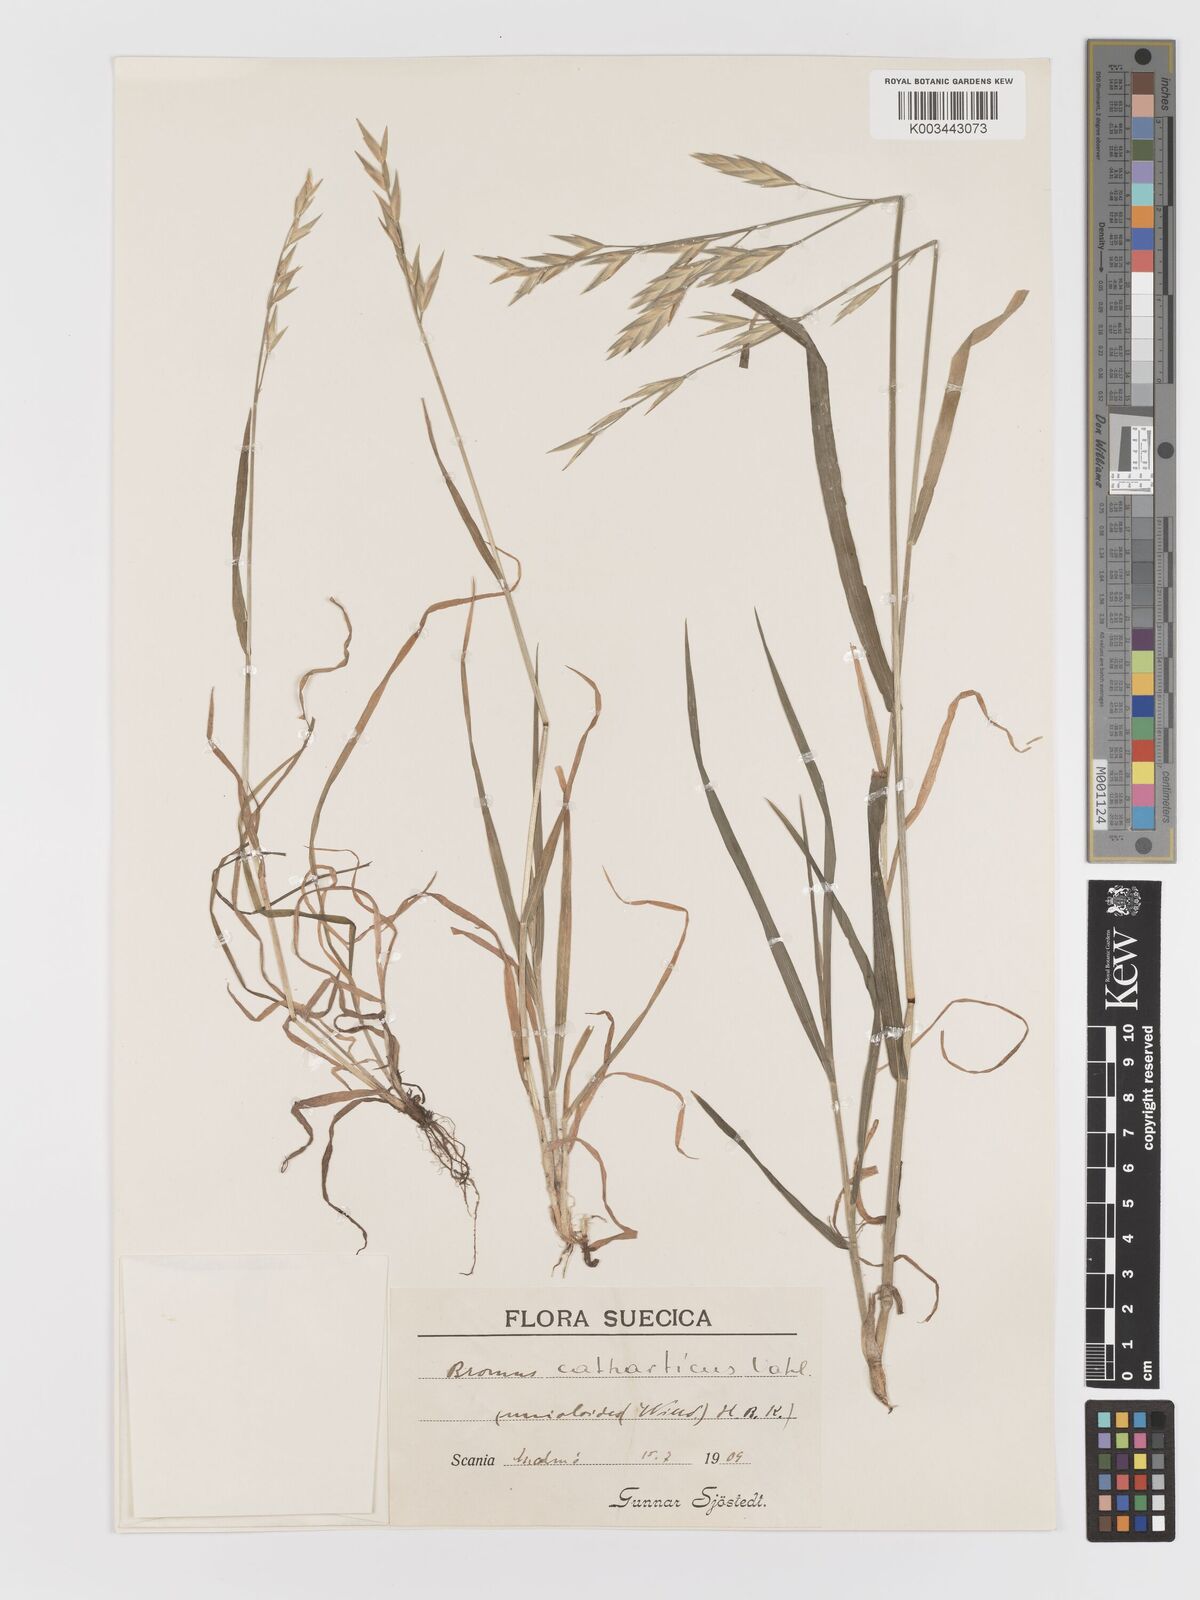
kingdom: Plantae
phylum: Tracheophyta
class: Liliopsida
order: Poales
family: Poaceae
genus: Bromus
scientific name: Bromus catharticus
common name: Rescuegrass
